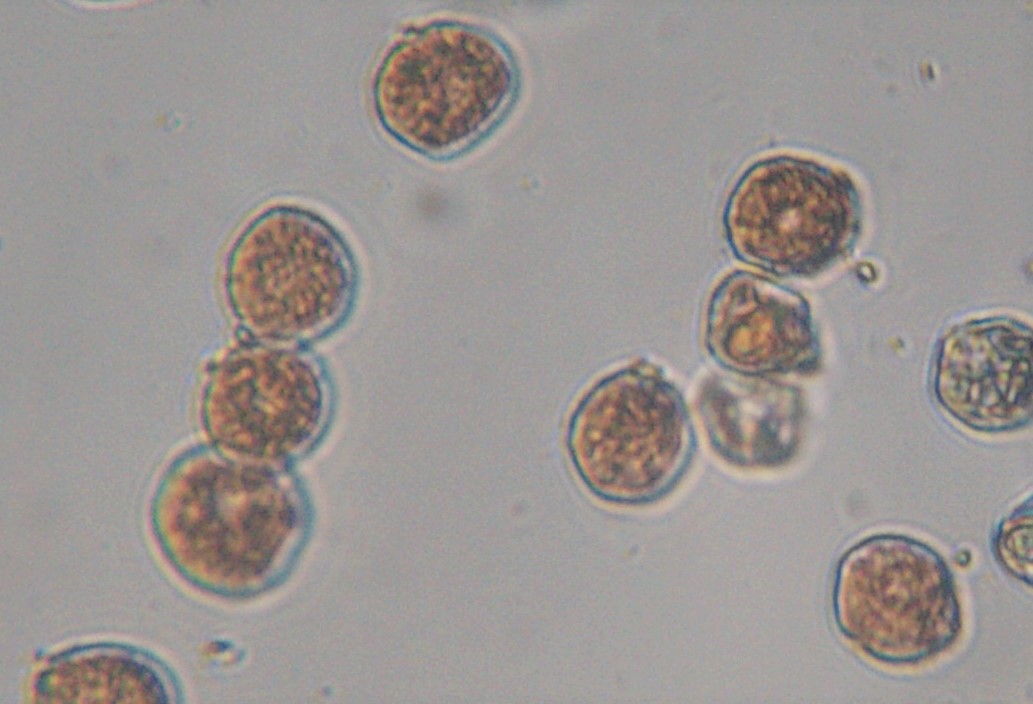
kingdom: Fungi
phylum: Basidiomycota
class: Pucciniomycetes
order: Pucciniales
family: Pucciniaceae
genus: Puccinia
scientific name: Puccinia obscura
